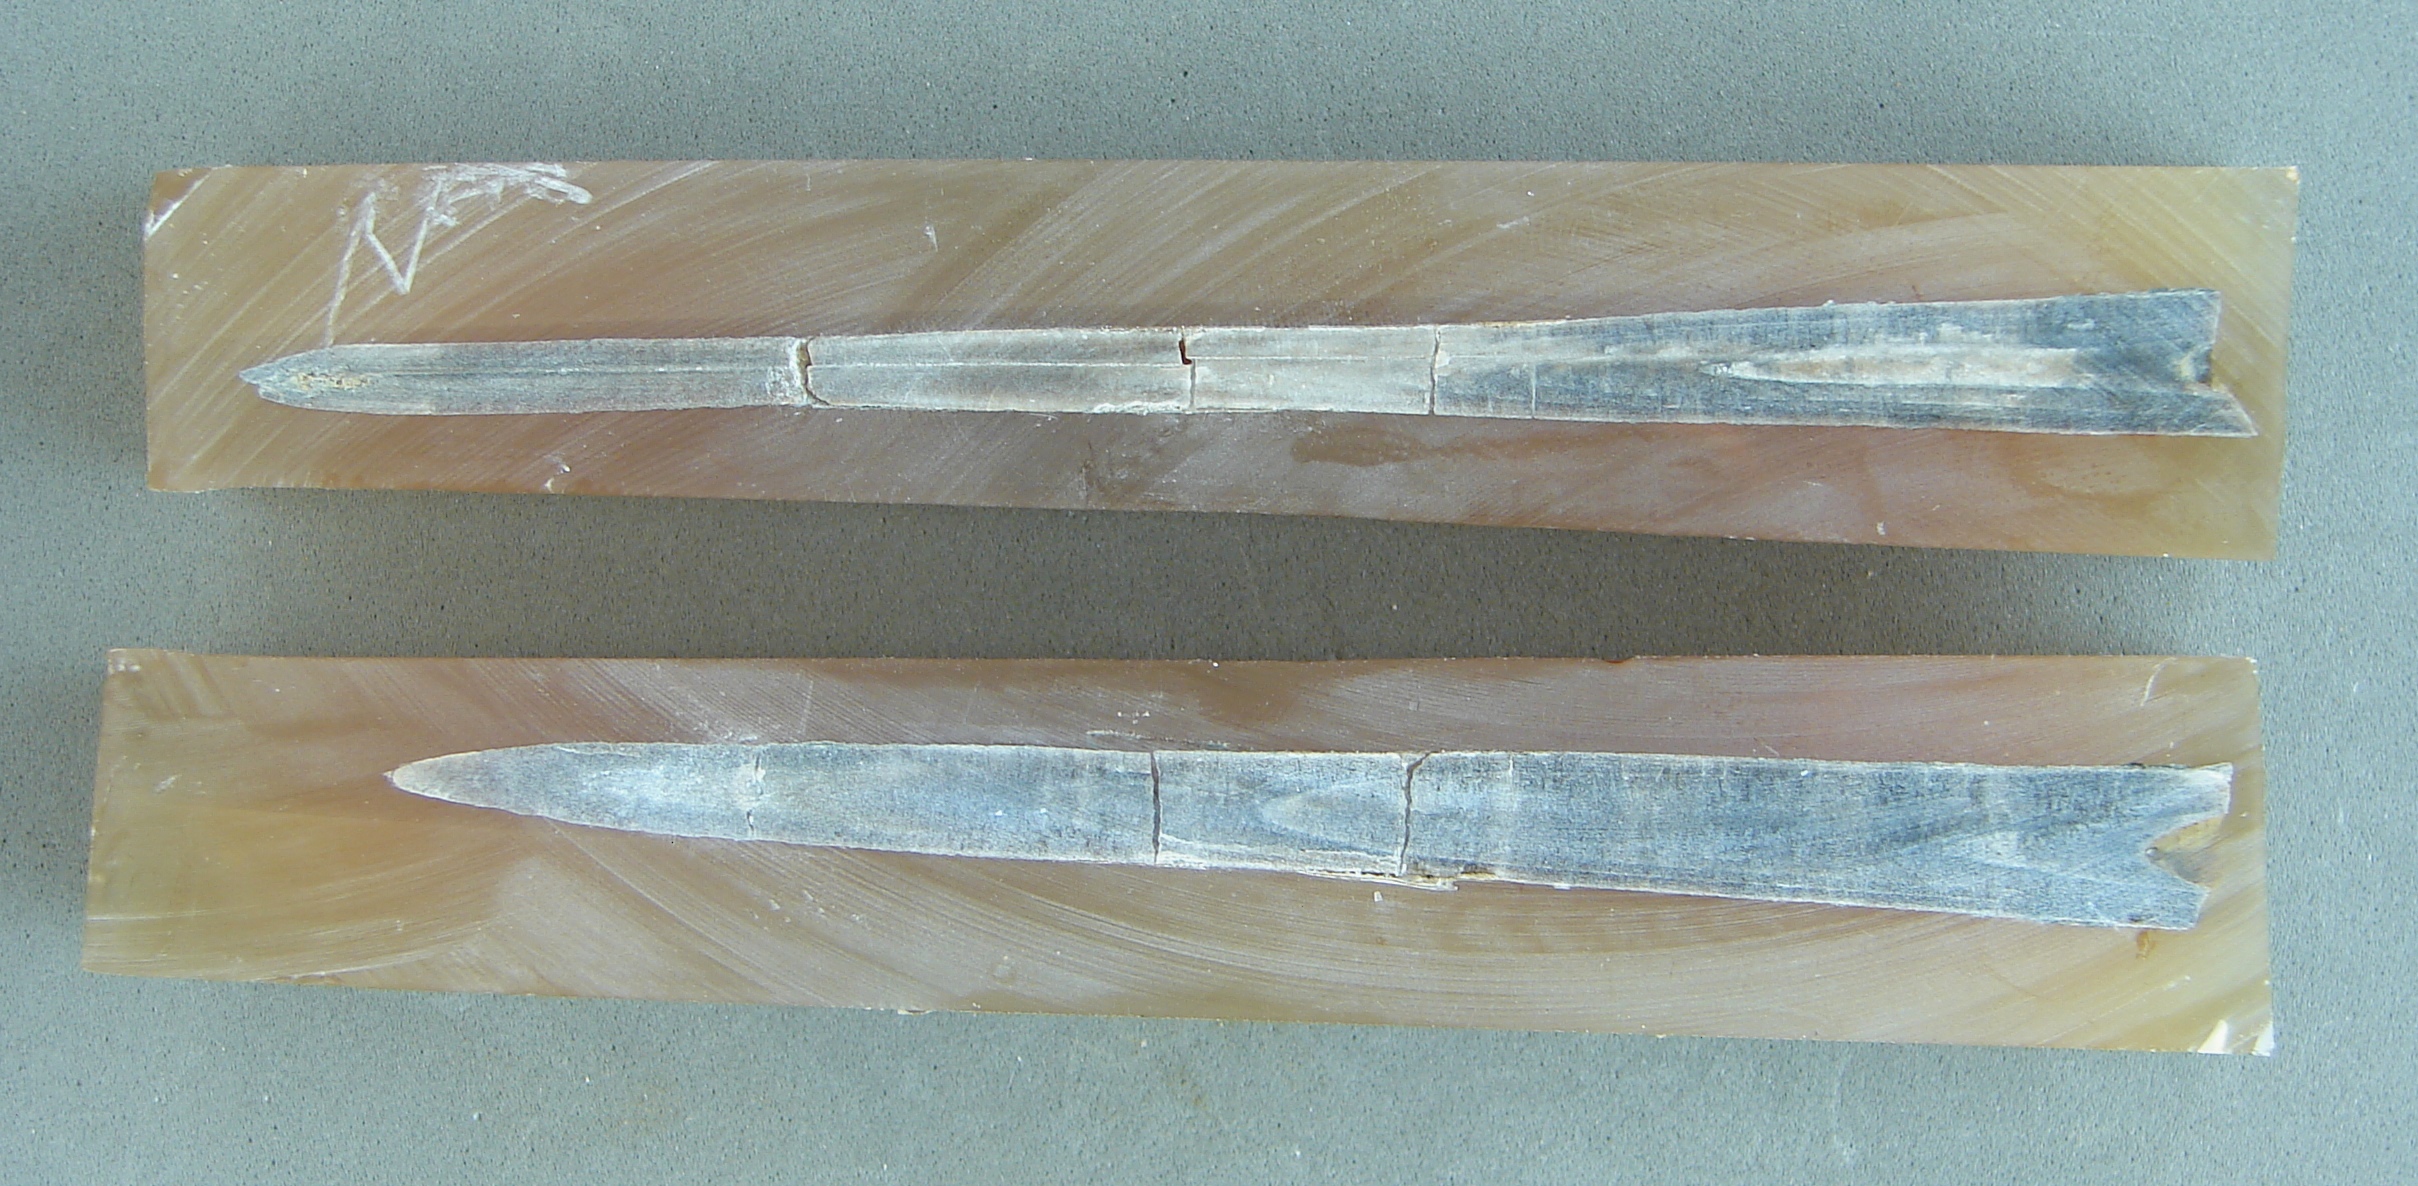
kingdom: Animalia
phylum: Mollusca
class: Cephalopoda
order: Belemnitida
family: Megateuthididae
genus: Dactyloteuthis
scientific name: Dactyloteuthis semistriata
